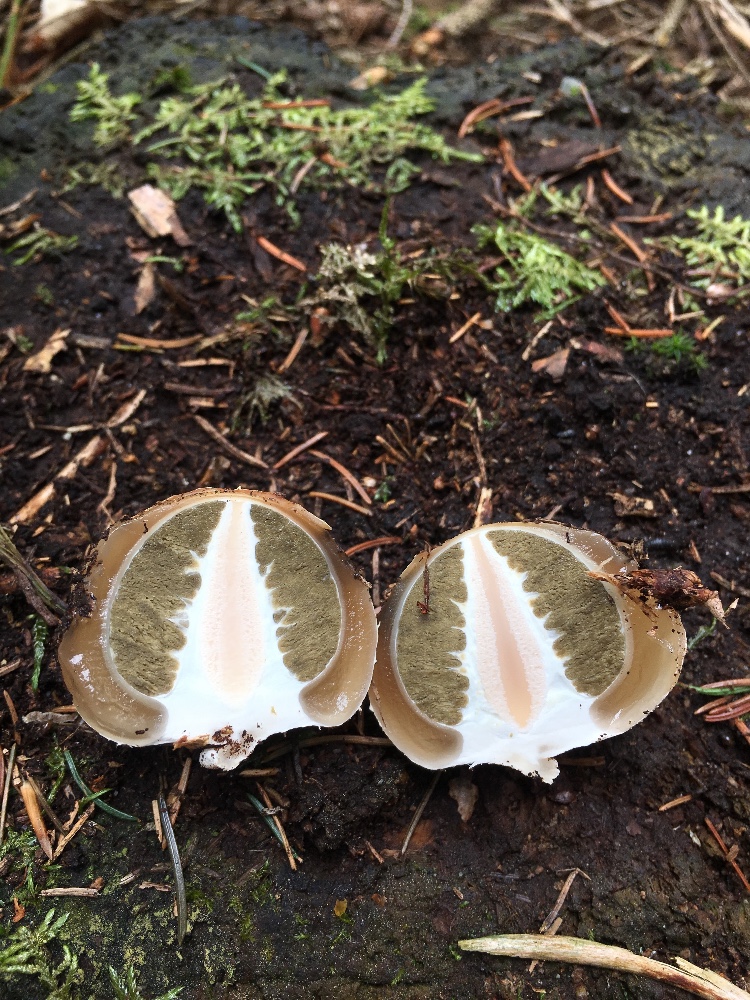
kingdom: Fungi
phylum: Basidiomycota
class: Agaricomycetes
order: Phallales
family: Phallaceae
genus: Phallus
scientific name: Phallus impudicus
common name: almindelig stinksvamp
